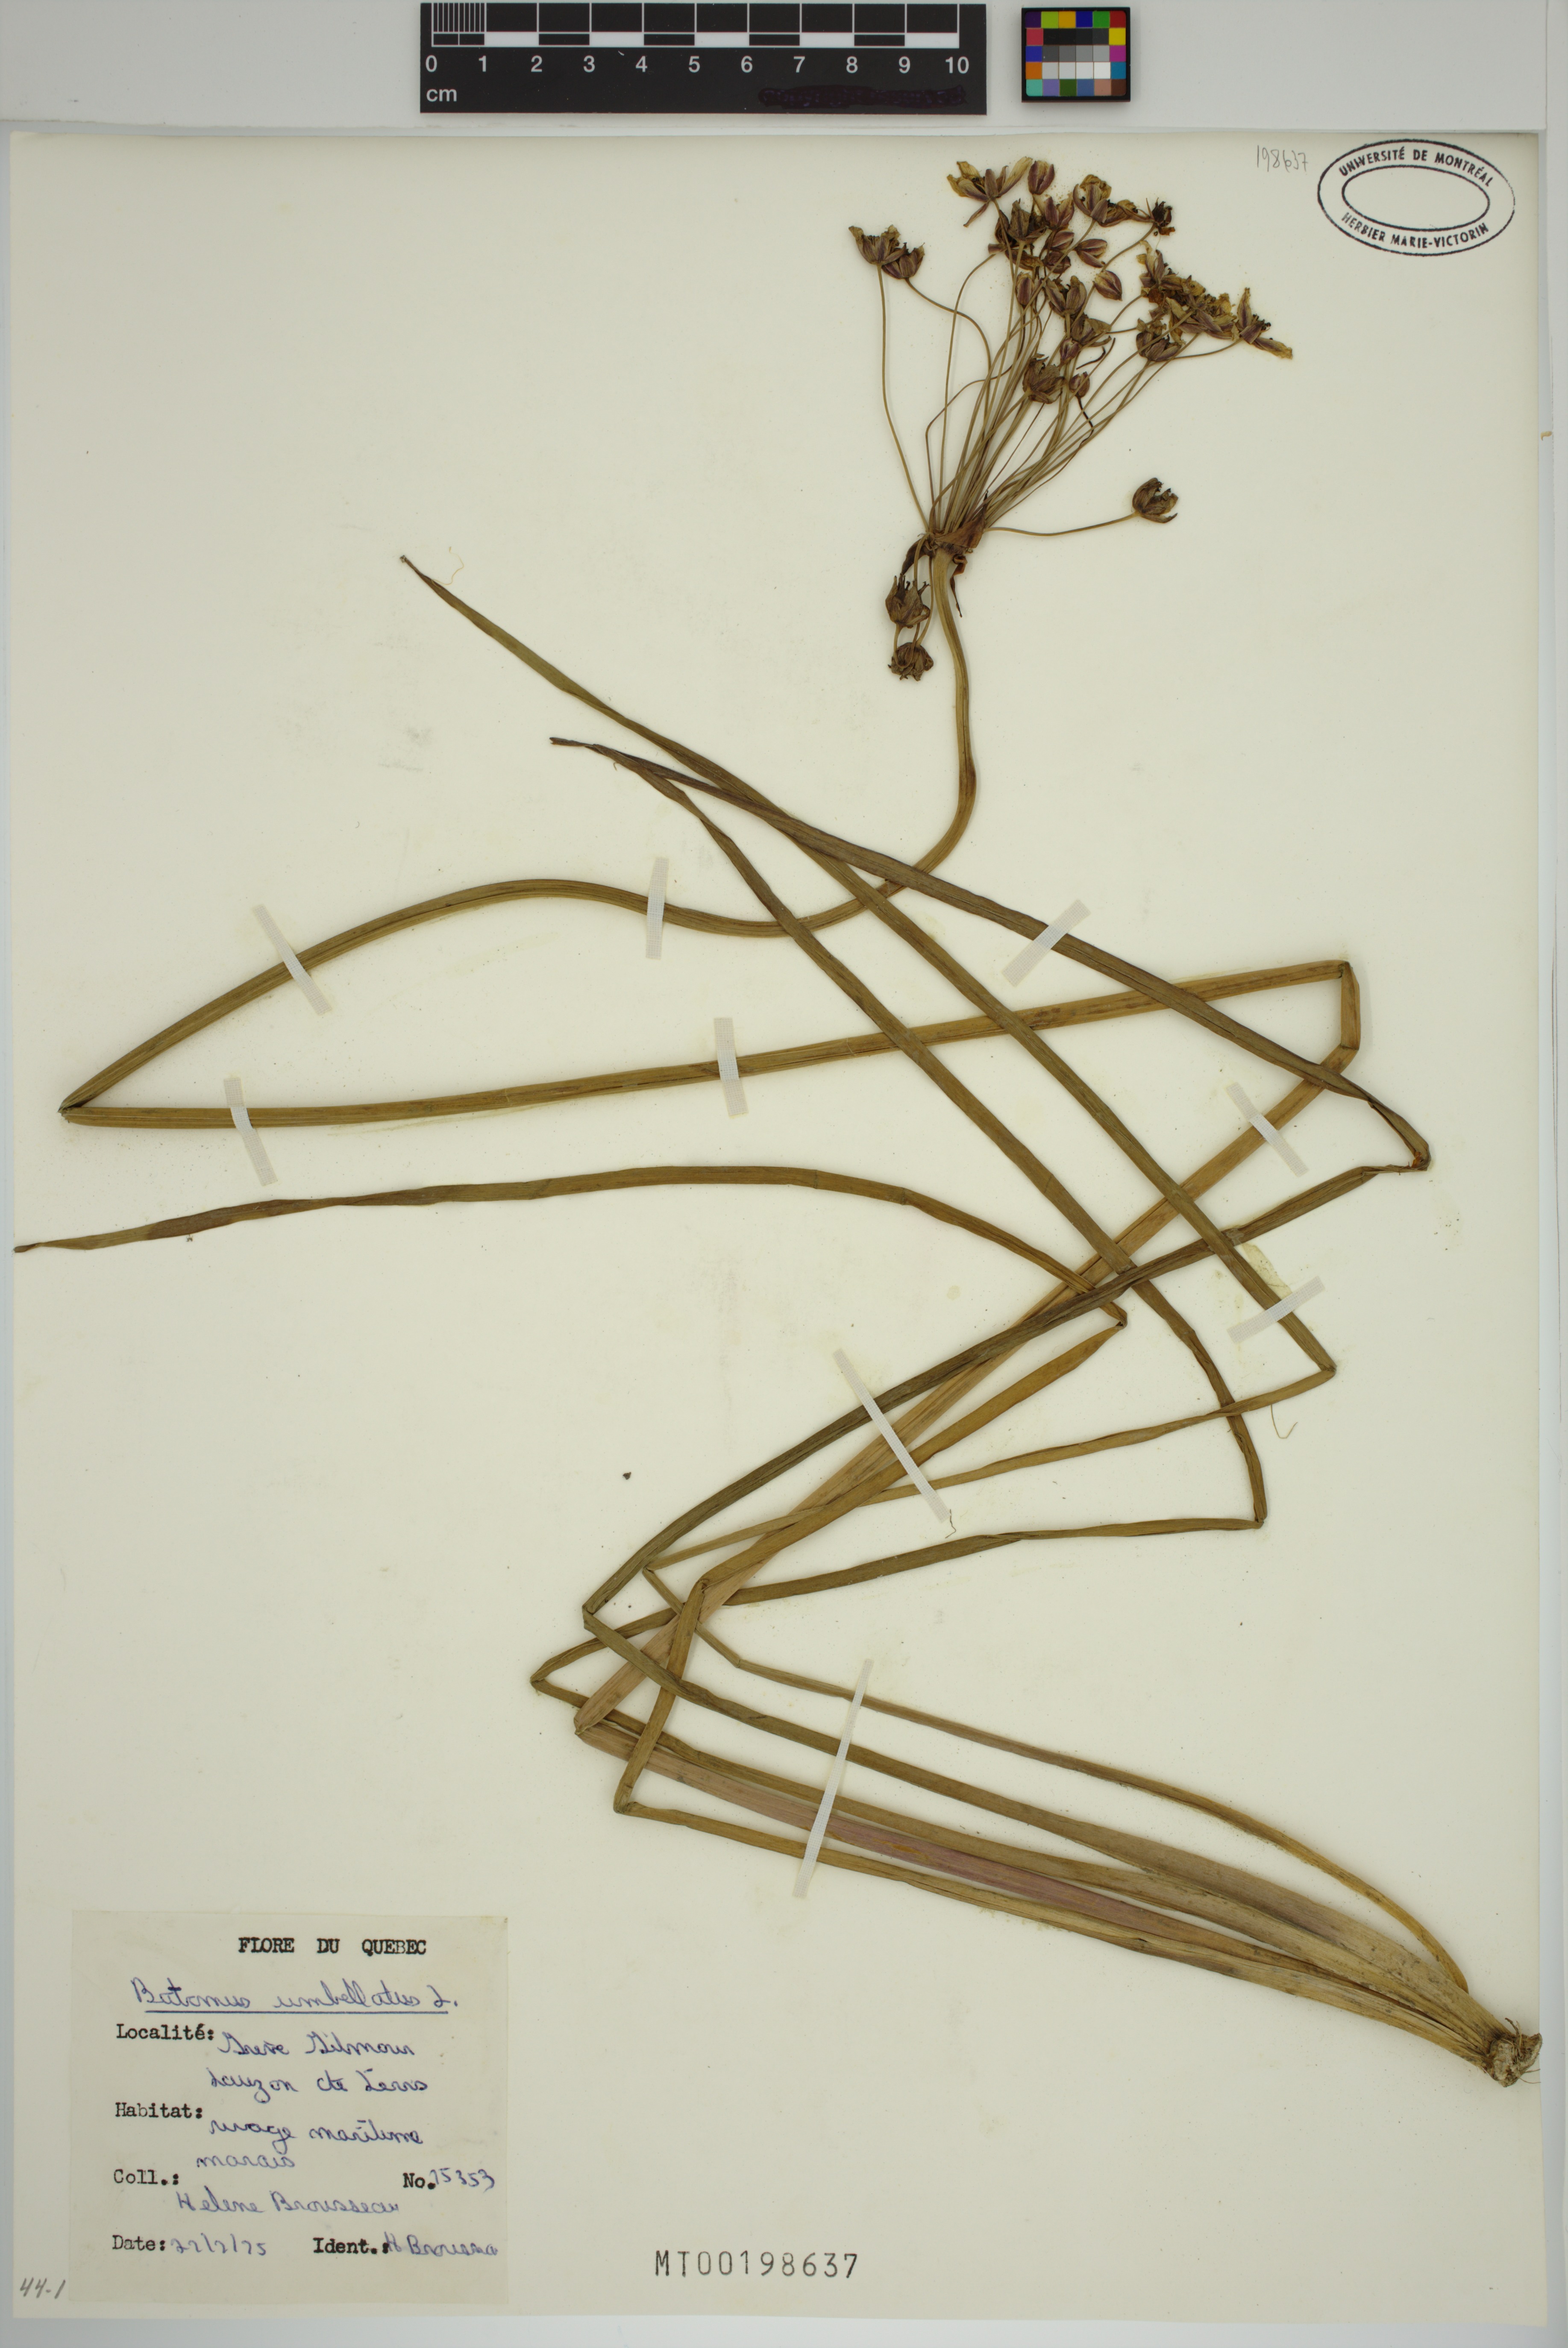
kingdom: Plantae
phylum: Tracheophyta
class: Liliopsida
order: Alismatales
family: Butomaceae
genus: Butomus
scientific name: Butomus umbellatus
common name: Flowering-rush
